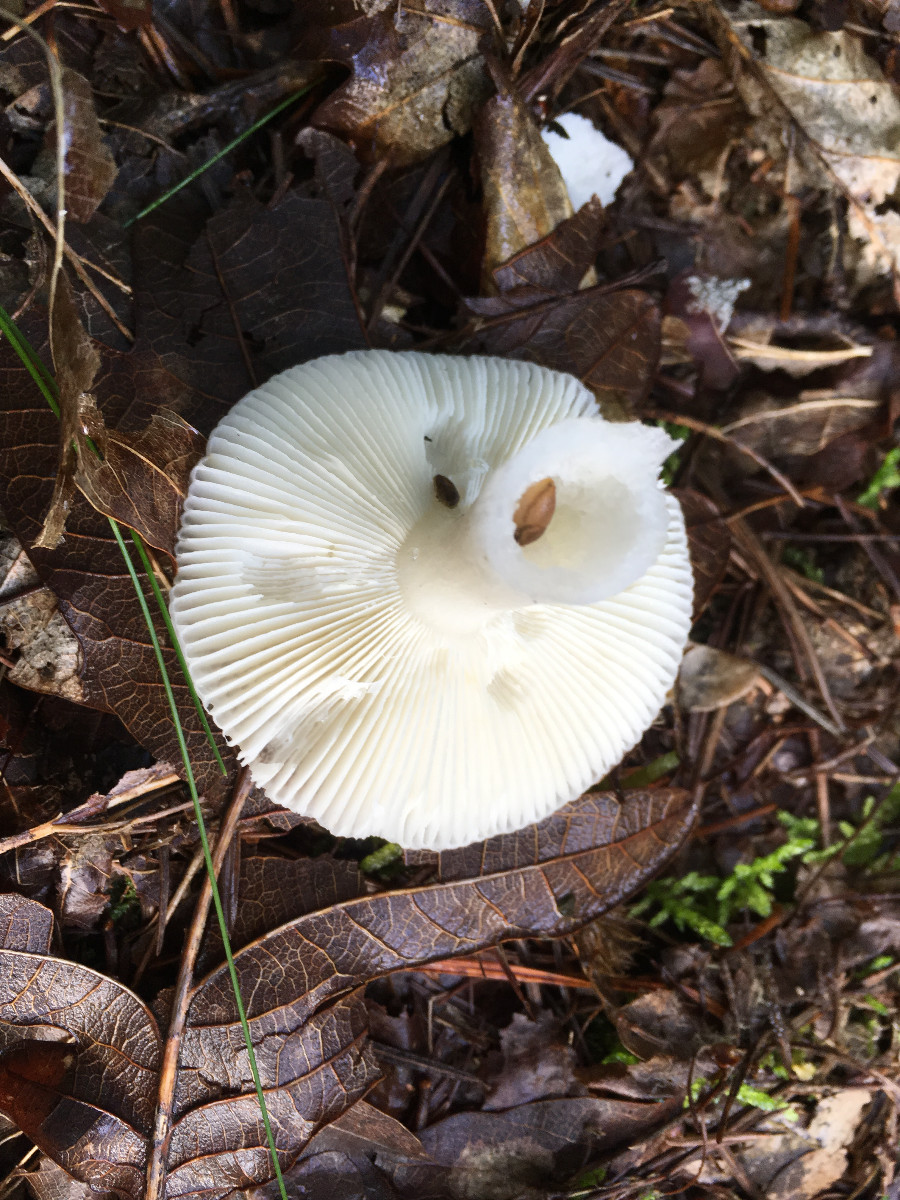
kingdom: Fungi
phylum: Basidiomycota
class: Agaricomycetes
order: Russulales
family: Russulaceae
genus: Russula
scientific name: Russula
